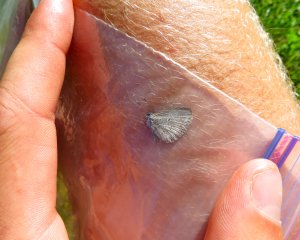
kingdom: Animalia
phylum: Arthropoda
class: Insecta
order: Lepidoptera
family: Lycaenidae
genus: Cyaniris
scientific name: Cyaniris neglecta
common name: Summer Azure
